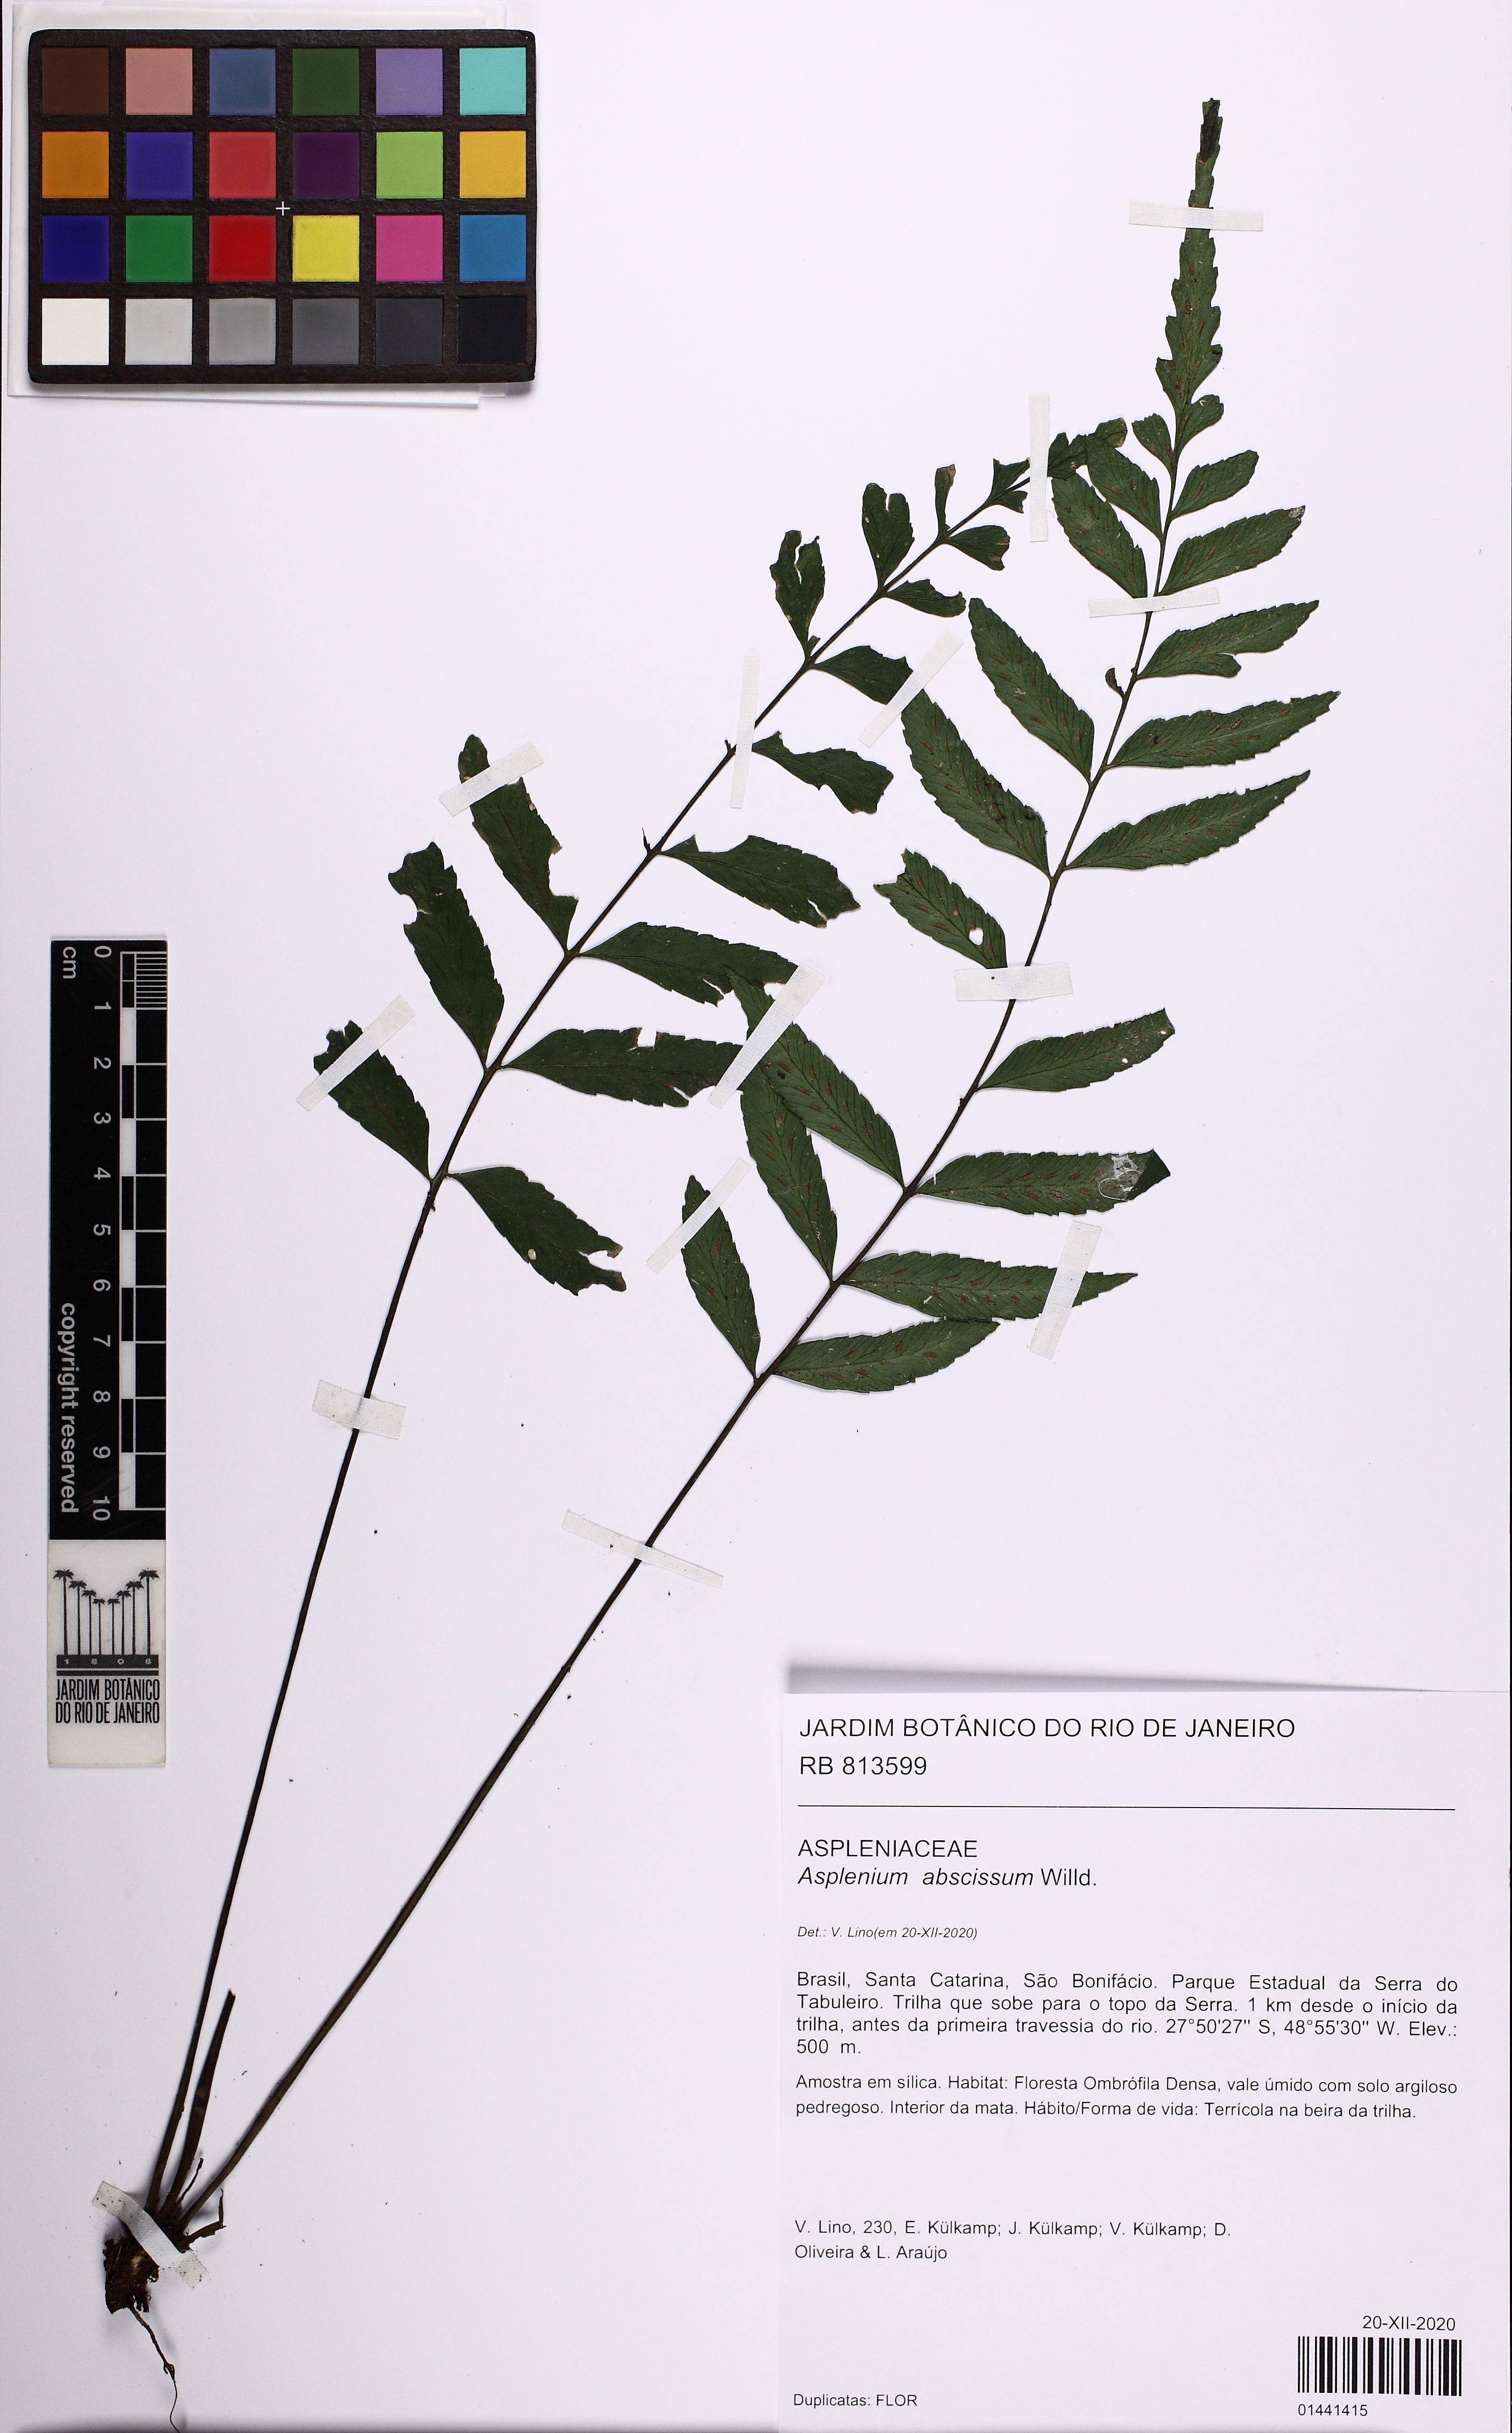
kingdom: Plantae
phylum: Tracheophyta
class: Polypodiopsida
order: Polypodiales
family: Aspleniaceae
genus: Asplenium
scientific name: Asplenium abscissum
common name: Cutleaf spleenwort
